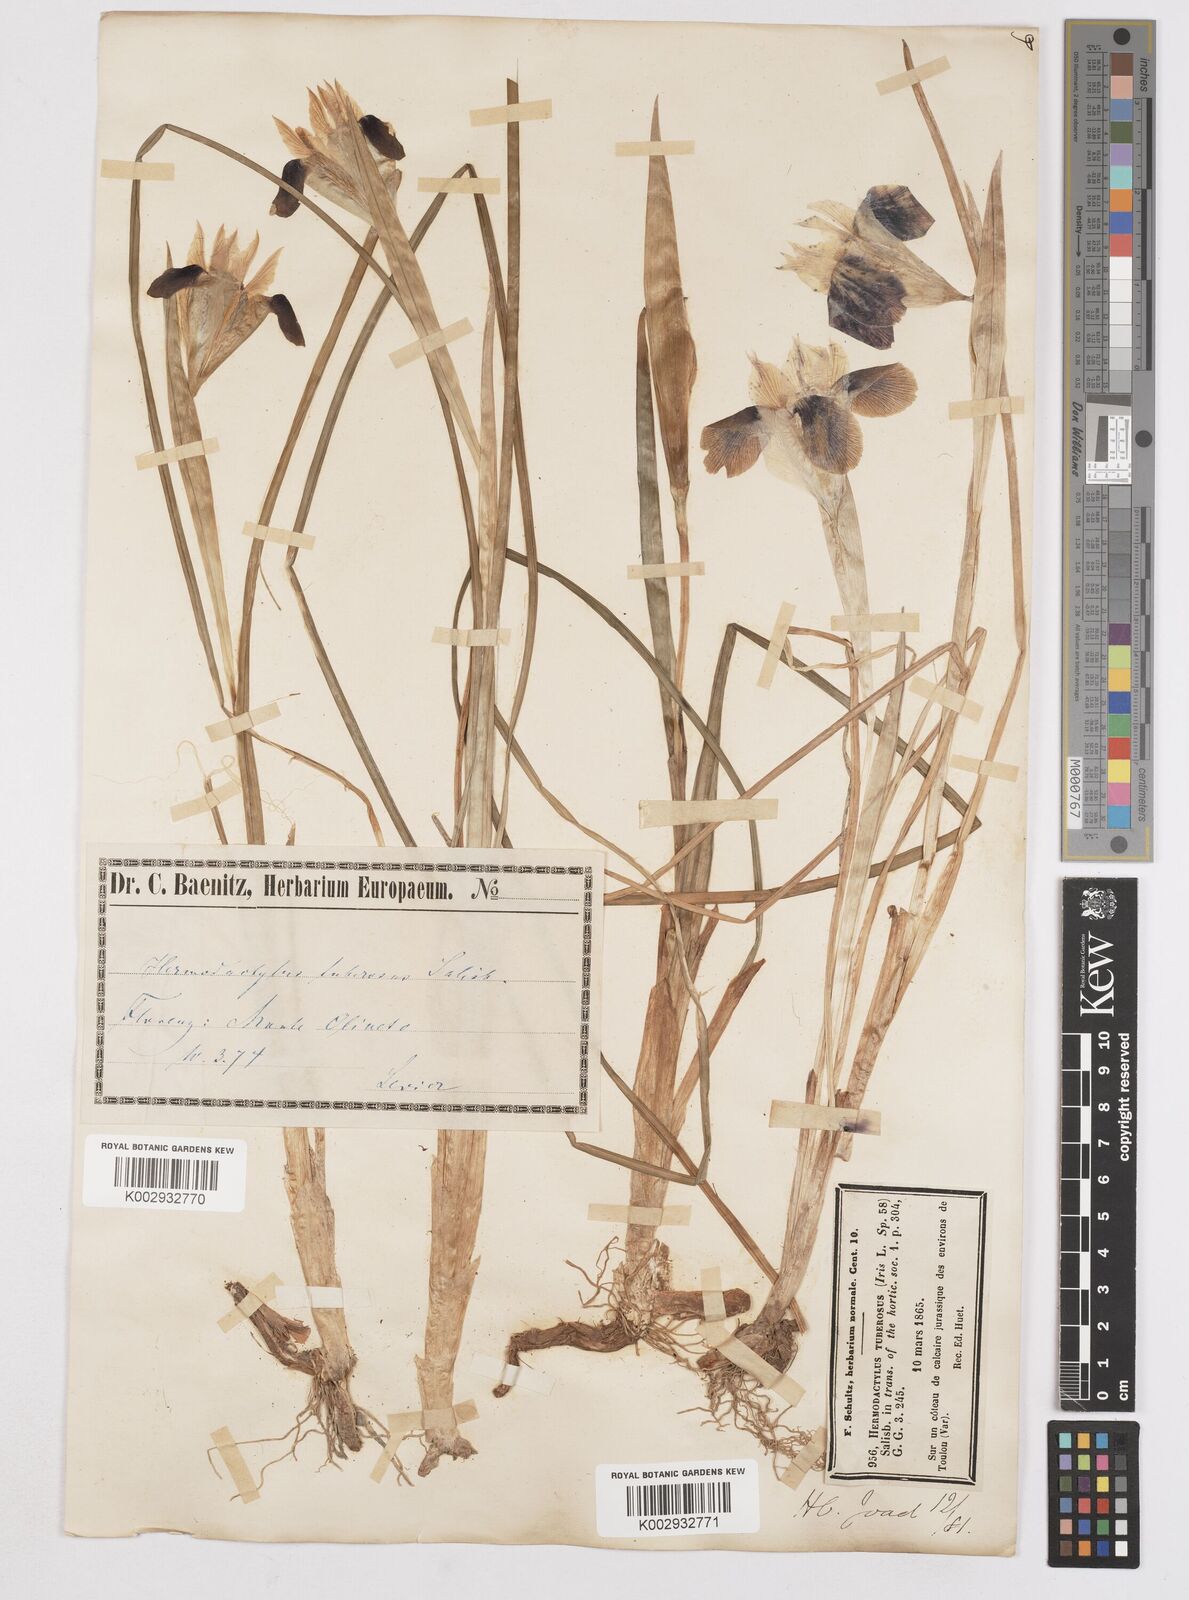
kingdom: Plantae
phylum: Tracheophyta
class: Liliopsida
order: Asparagales
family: Iridaceae
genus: Iris
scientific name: Iris tuberosa
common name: Snake's-head iris
